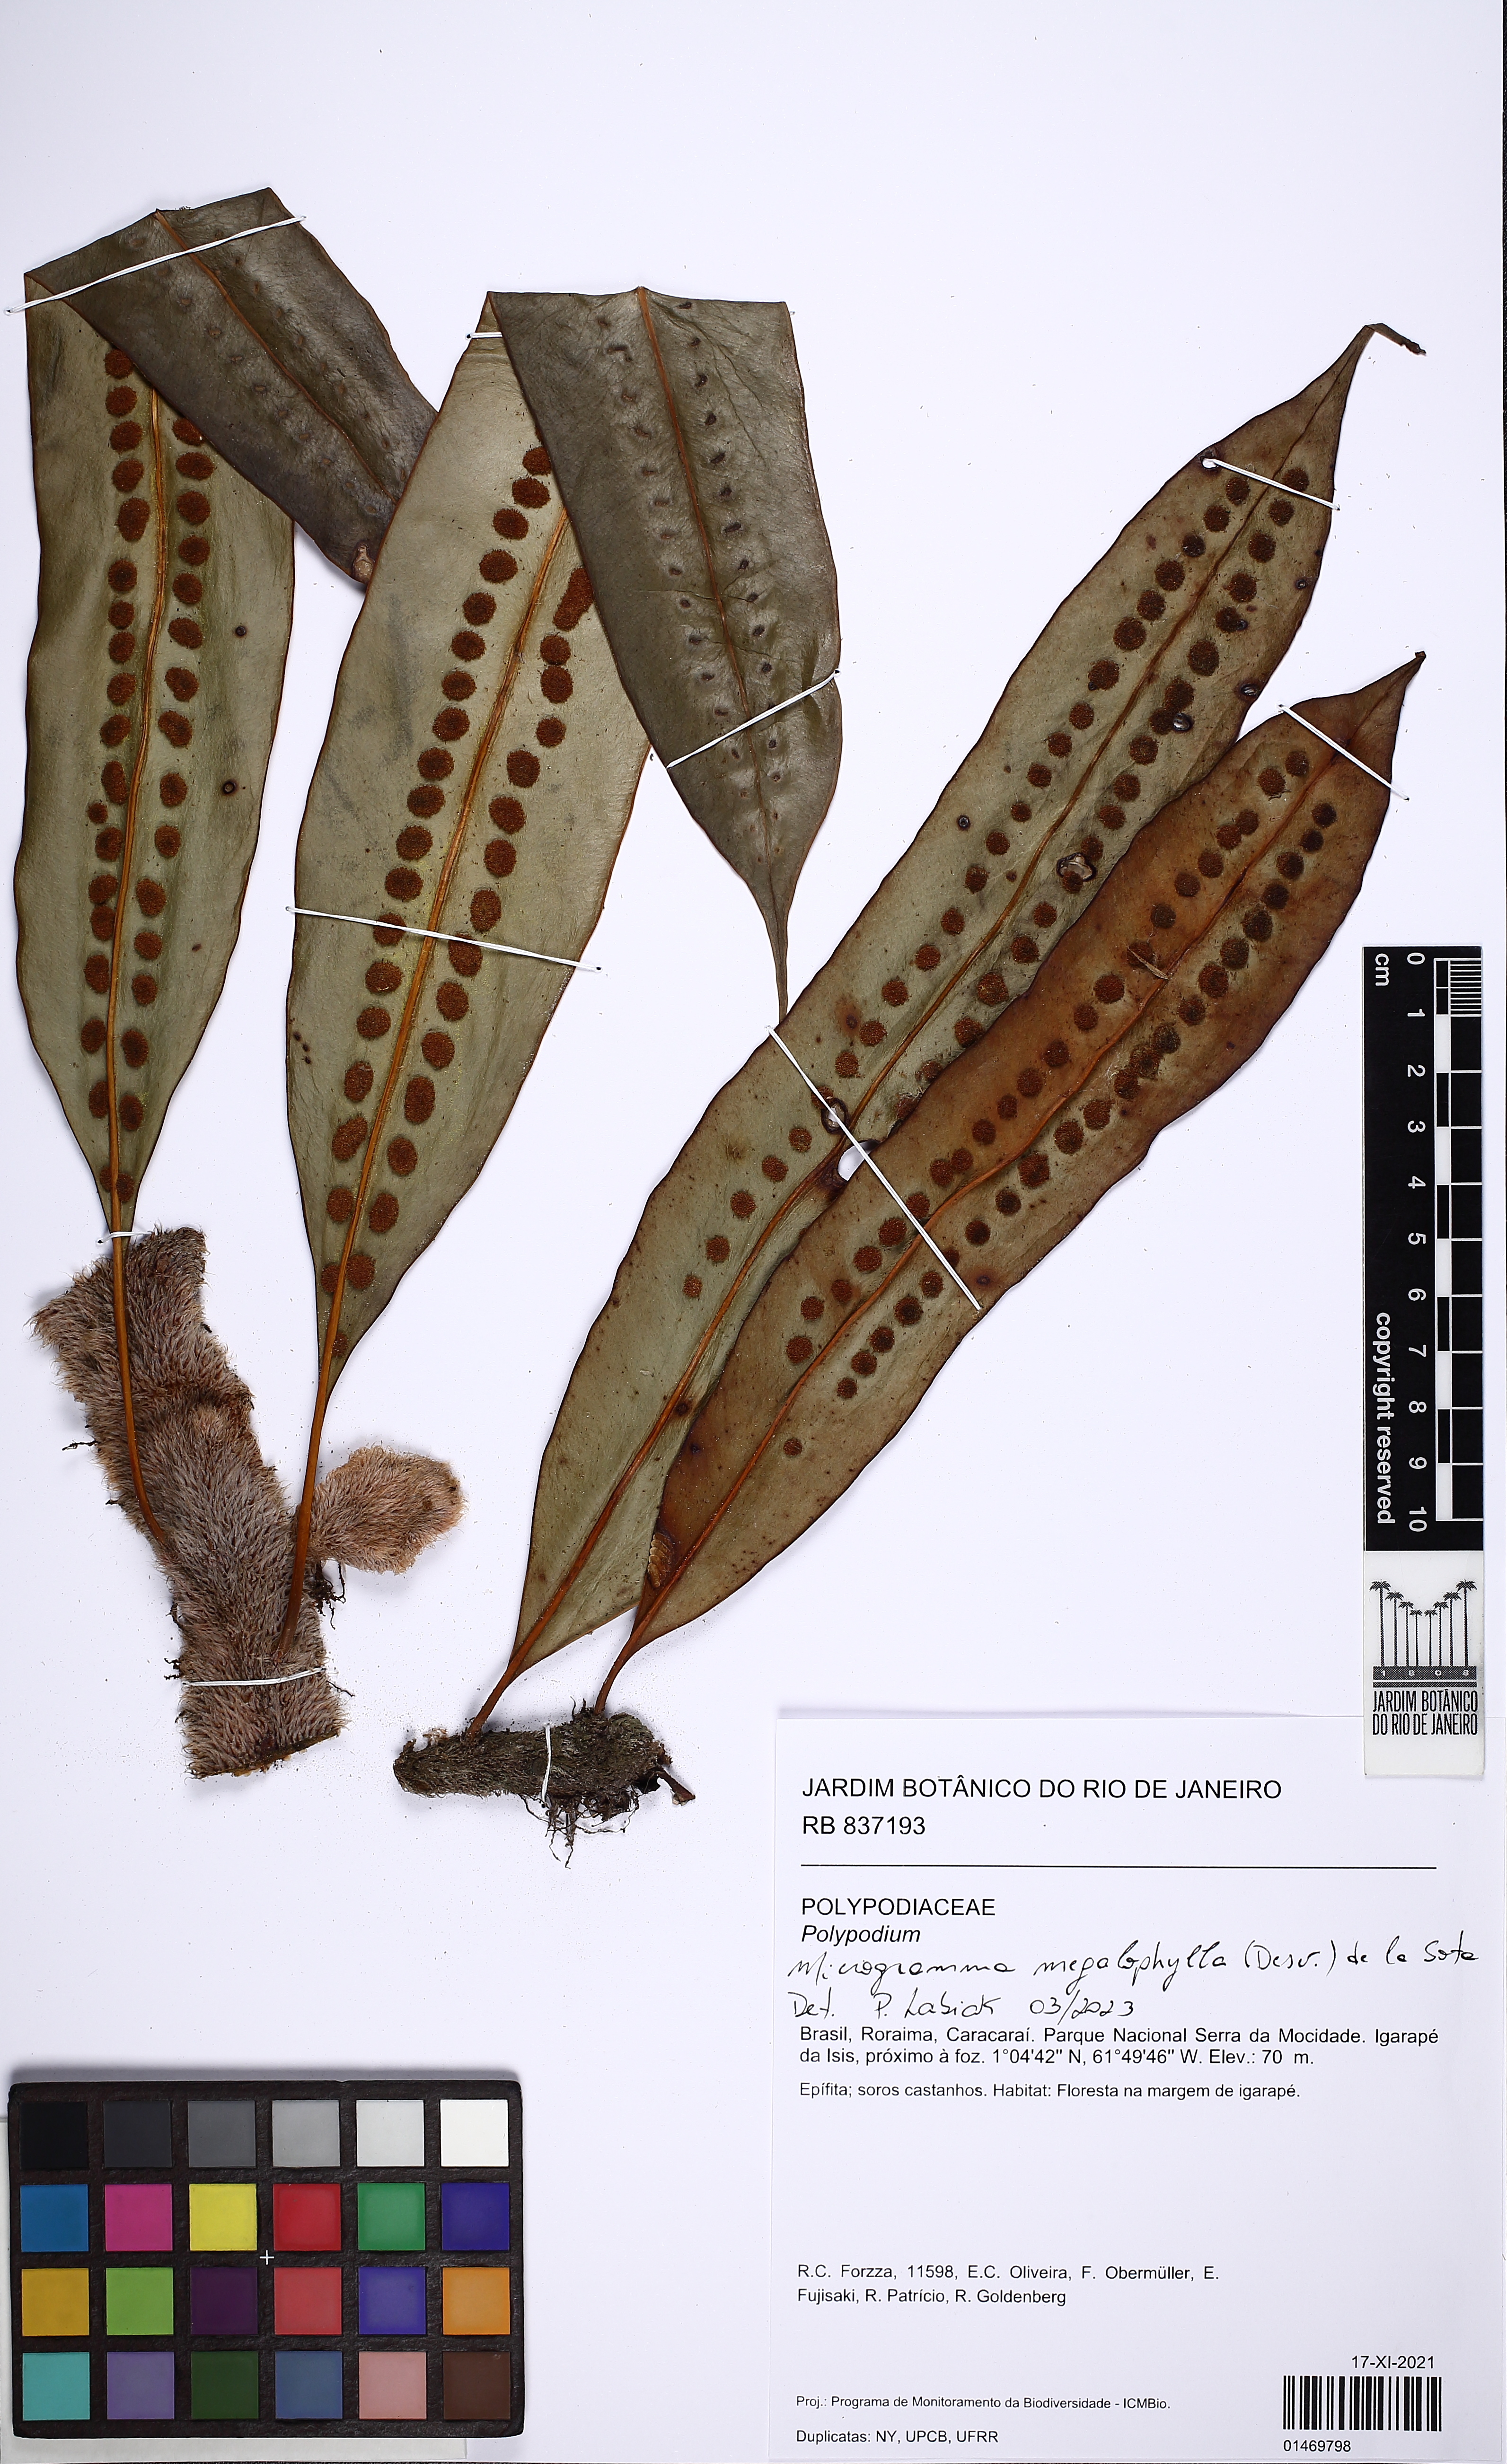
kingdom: Plantae
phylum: Tracheophyta
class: Polypodiopsida
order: Polypodiales
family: Polypodiaceae
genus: Microgramma
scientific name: Microgramma megalophylla
